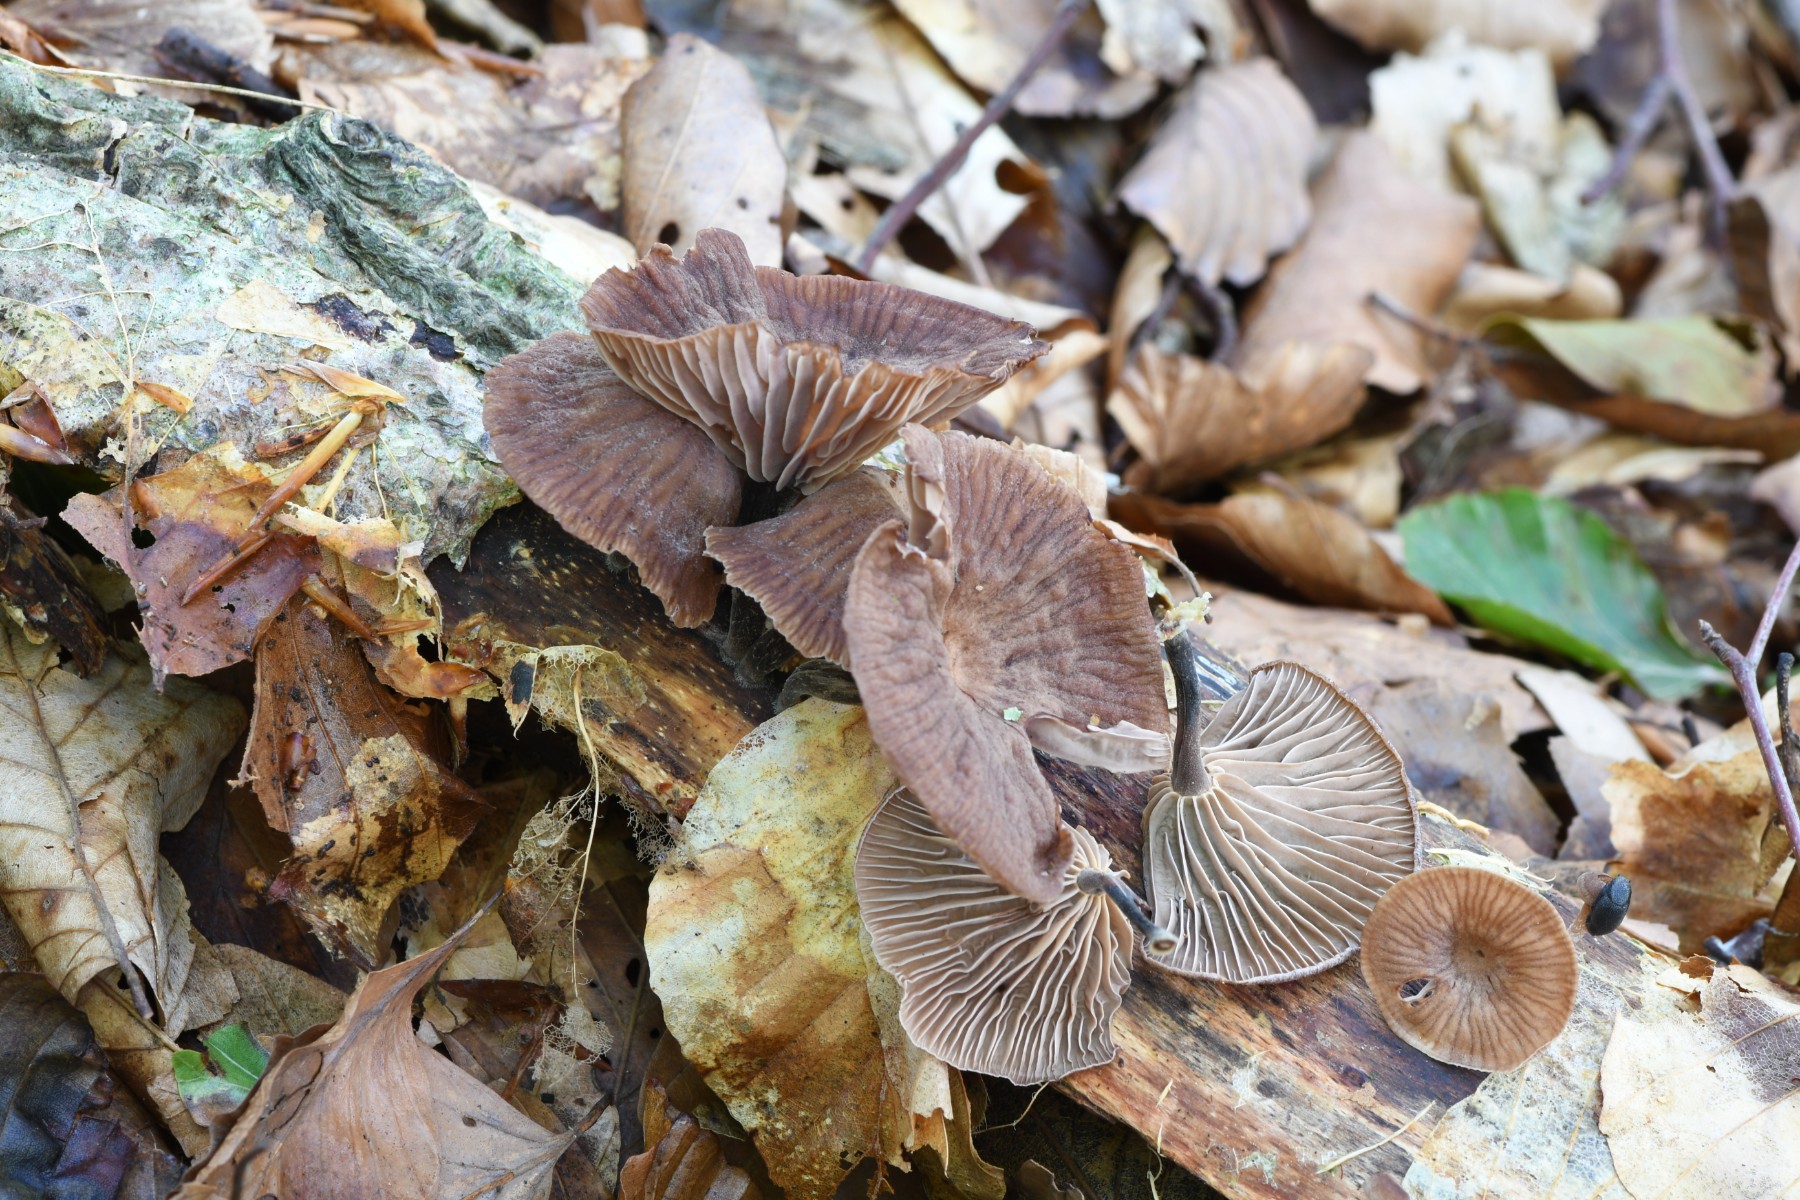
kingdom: Fungi
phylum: Basidiomycota
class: Agaricomycetes
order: Agaricales
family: Omphalotaceae
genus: Gymnopus
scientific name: Gymnopus foetidus
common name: stinkende fladhat
